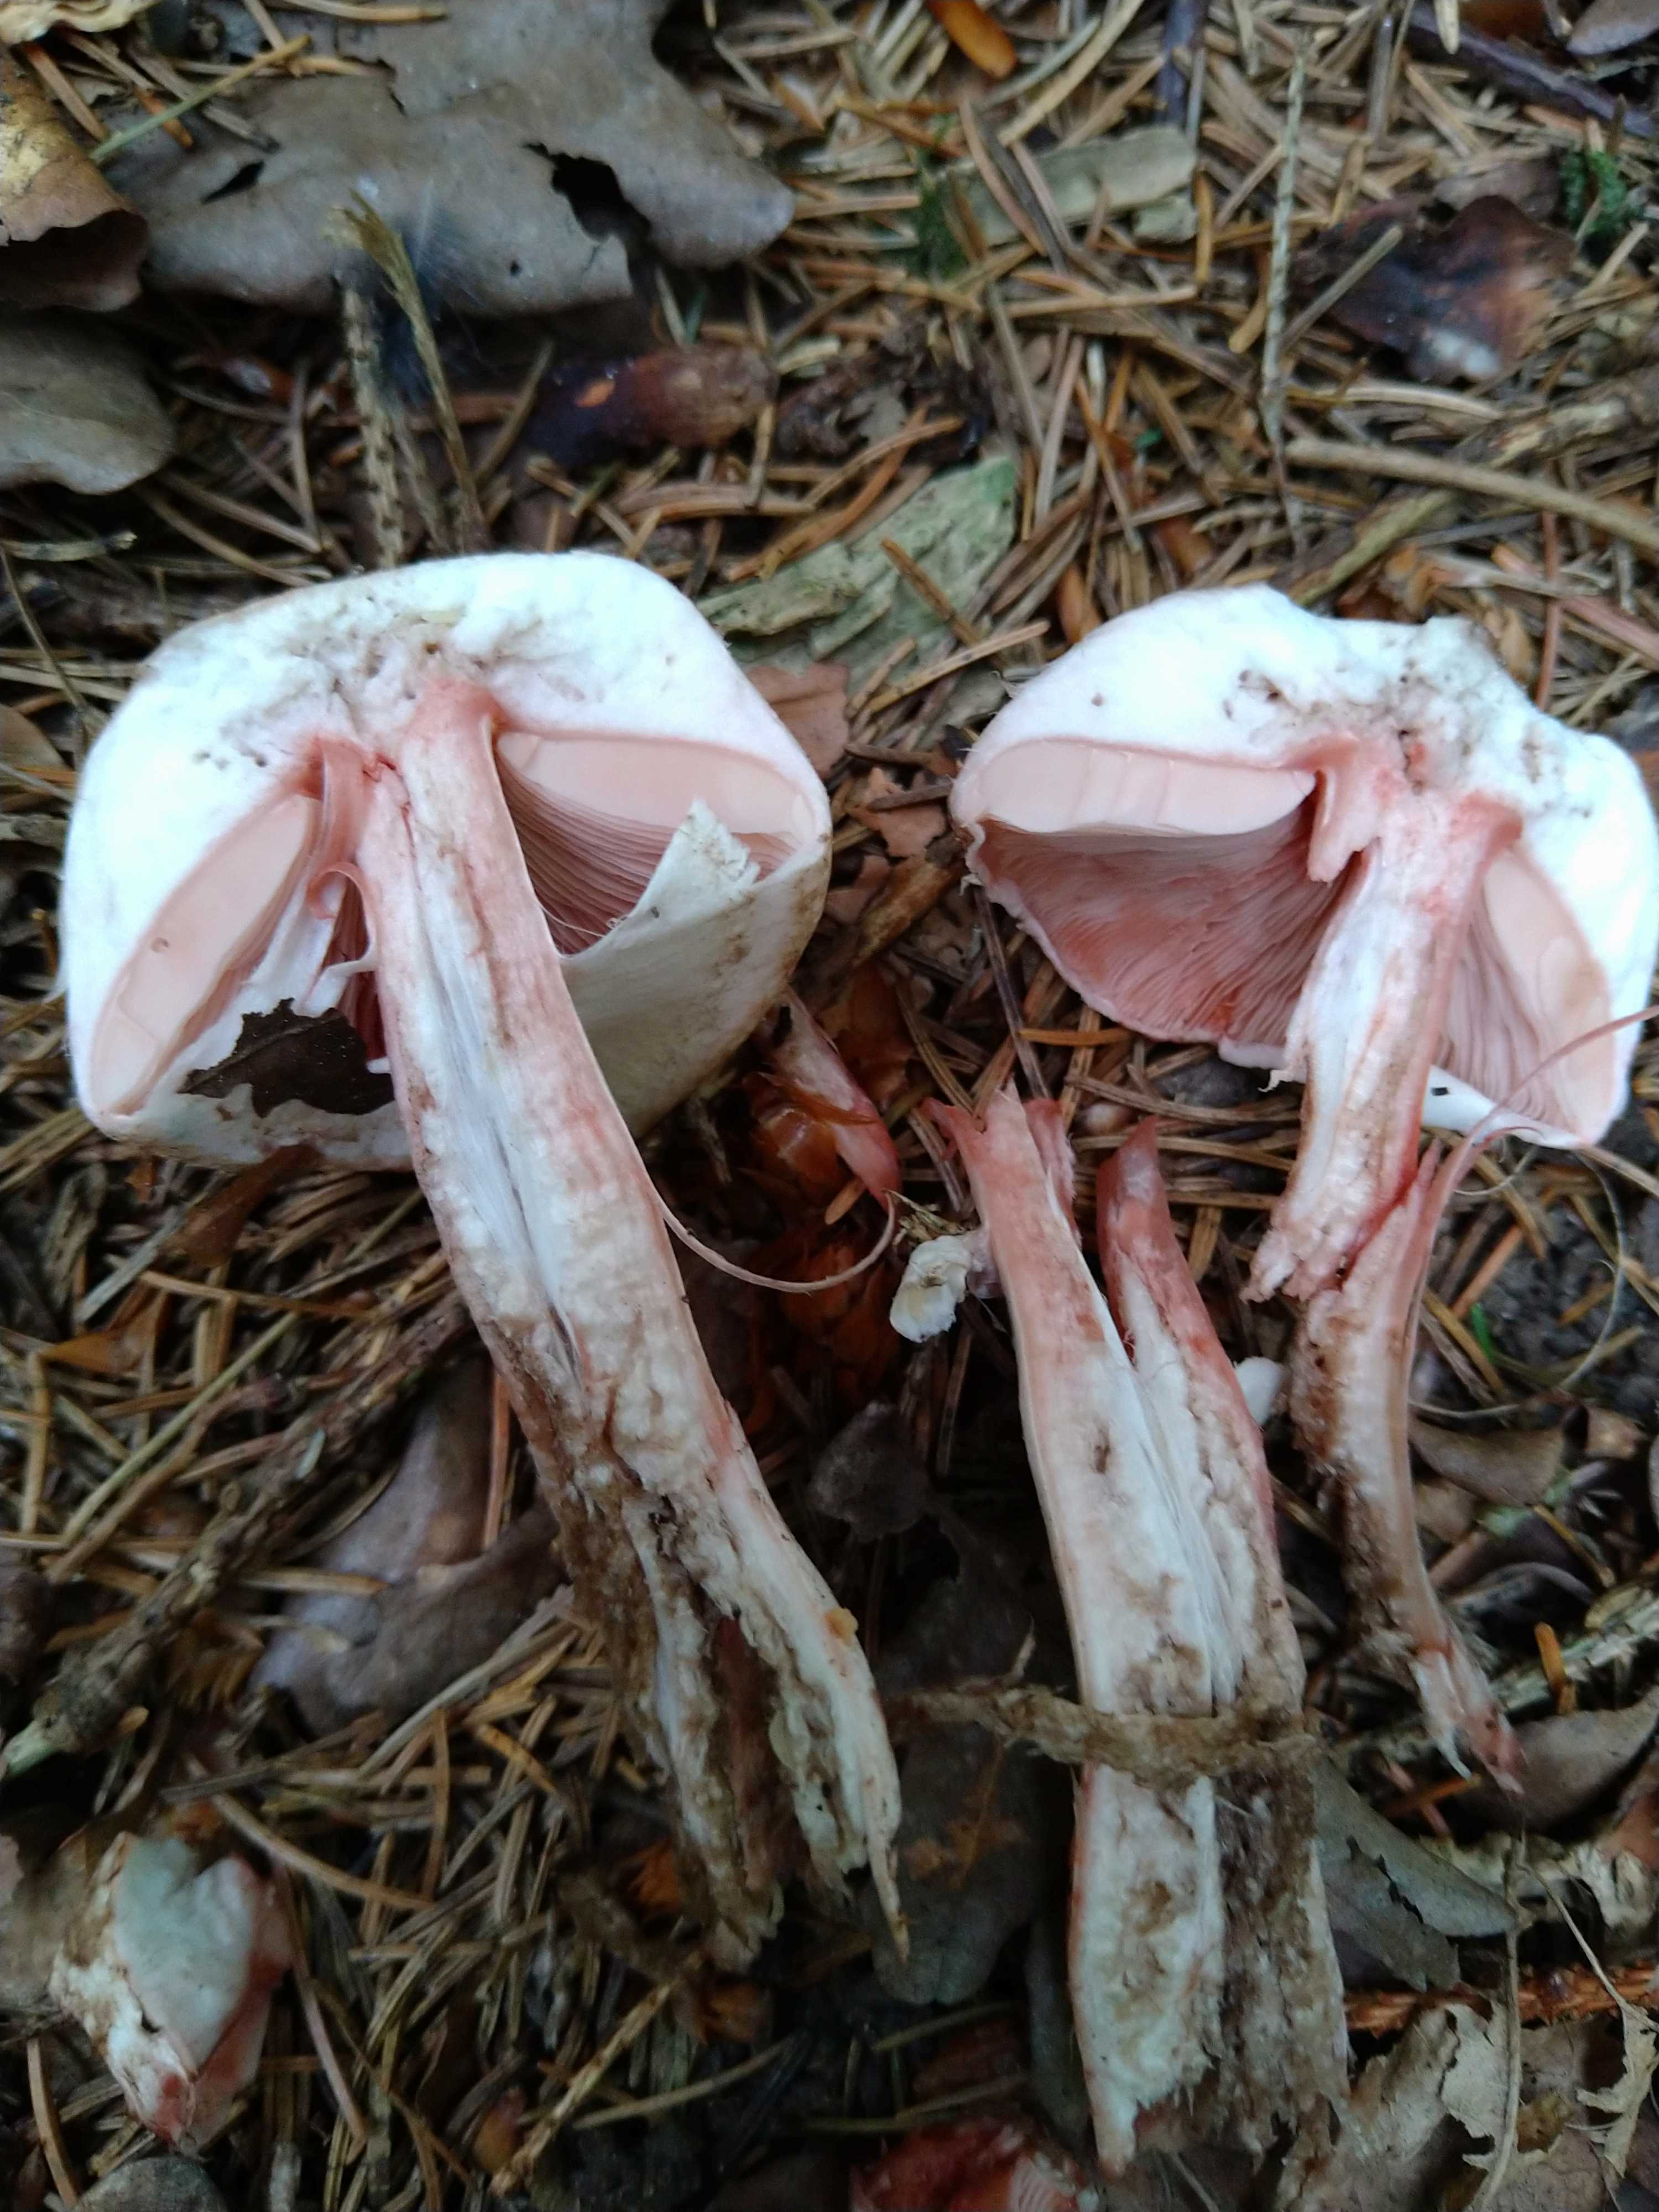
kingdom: Fungi
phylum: Basidiomycota
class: Agaricomycetes
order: Agaricales
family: Agaricaceae
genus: Agaricus
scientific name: Agaricus
